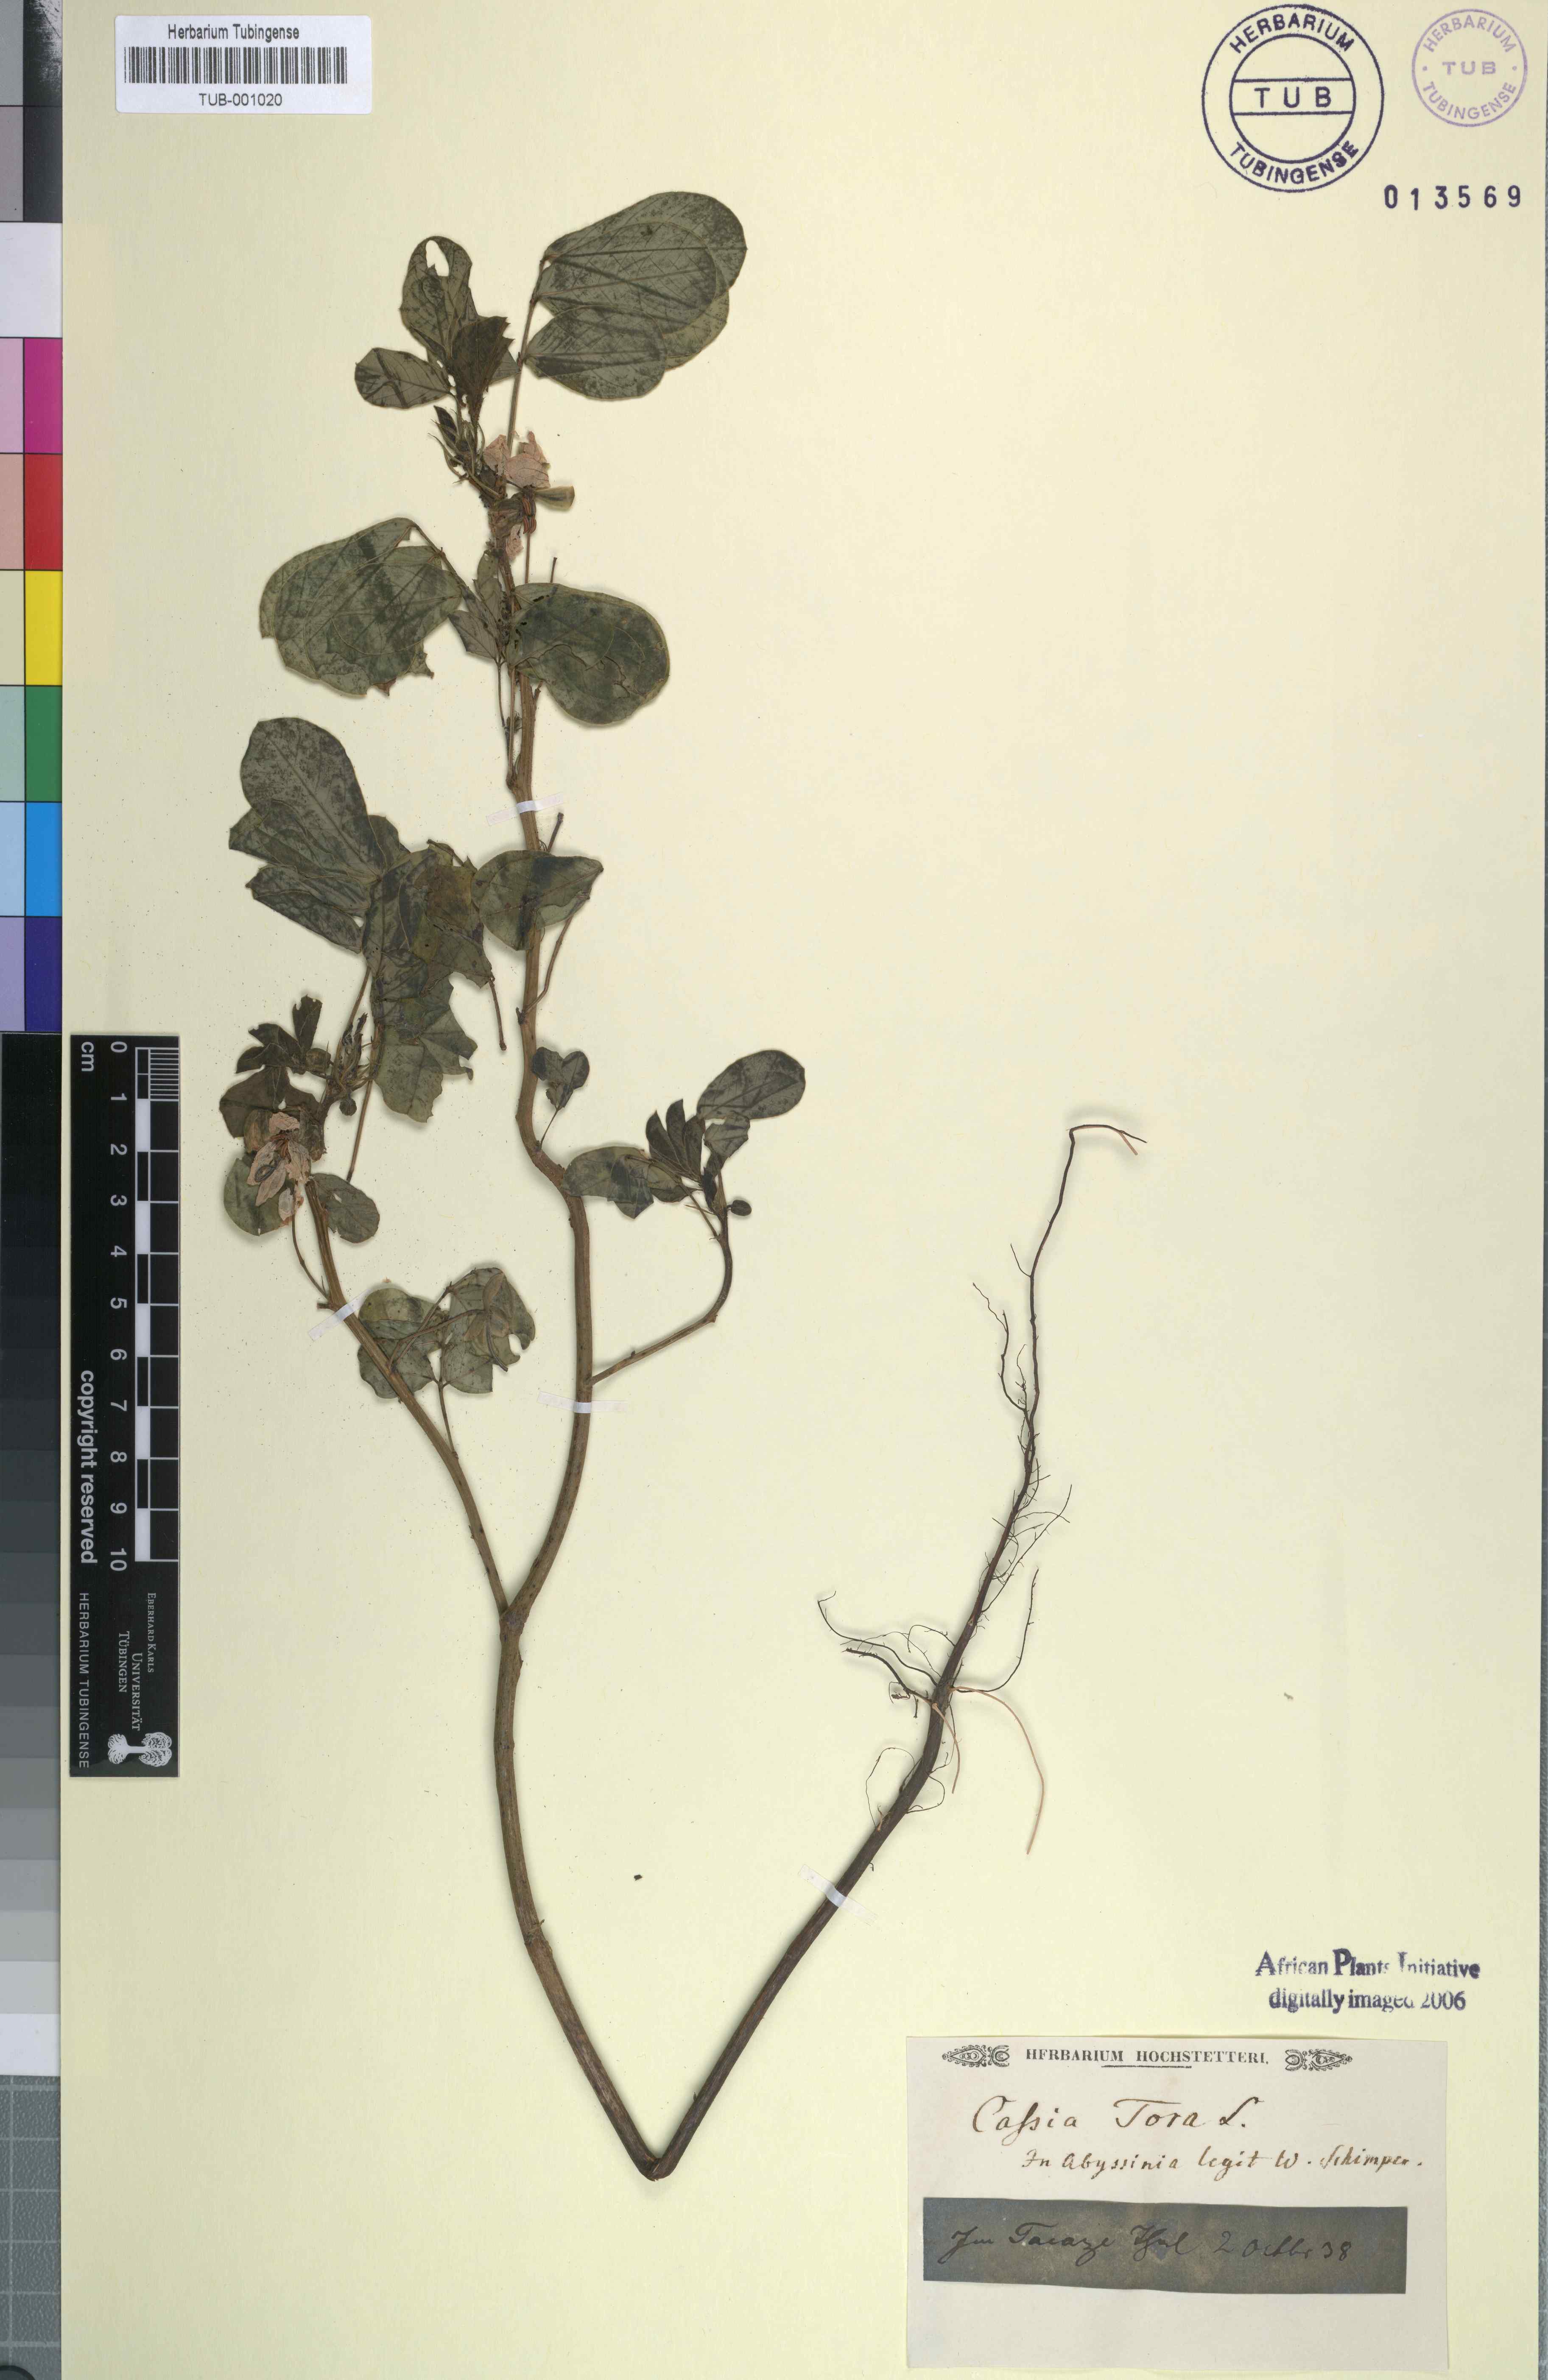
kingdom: Plantae
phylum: Tracheophyta
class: Magnoliopsida
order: Fabales
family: Fabaceae
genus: Senna
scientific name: Senna tora
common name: Sickle senna
